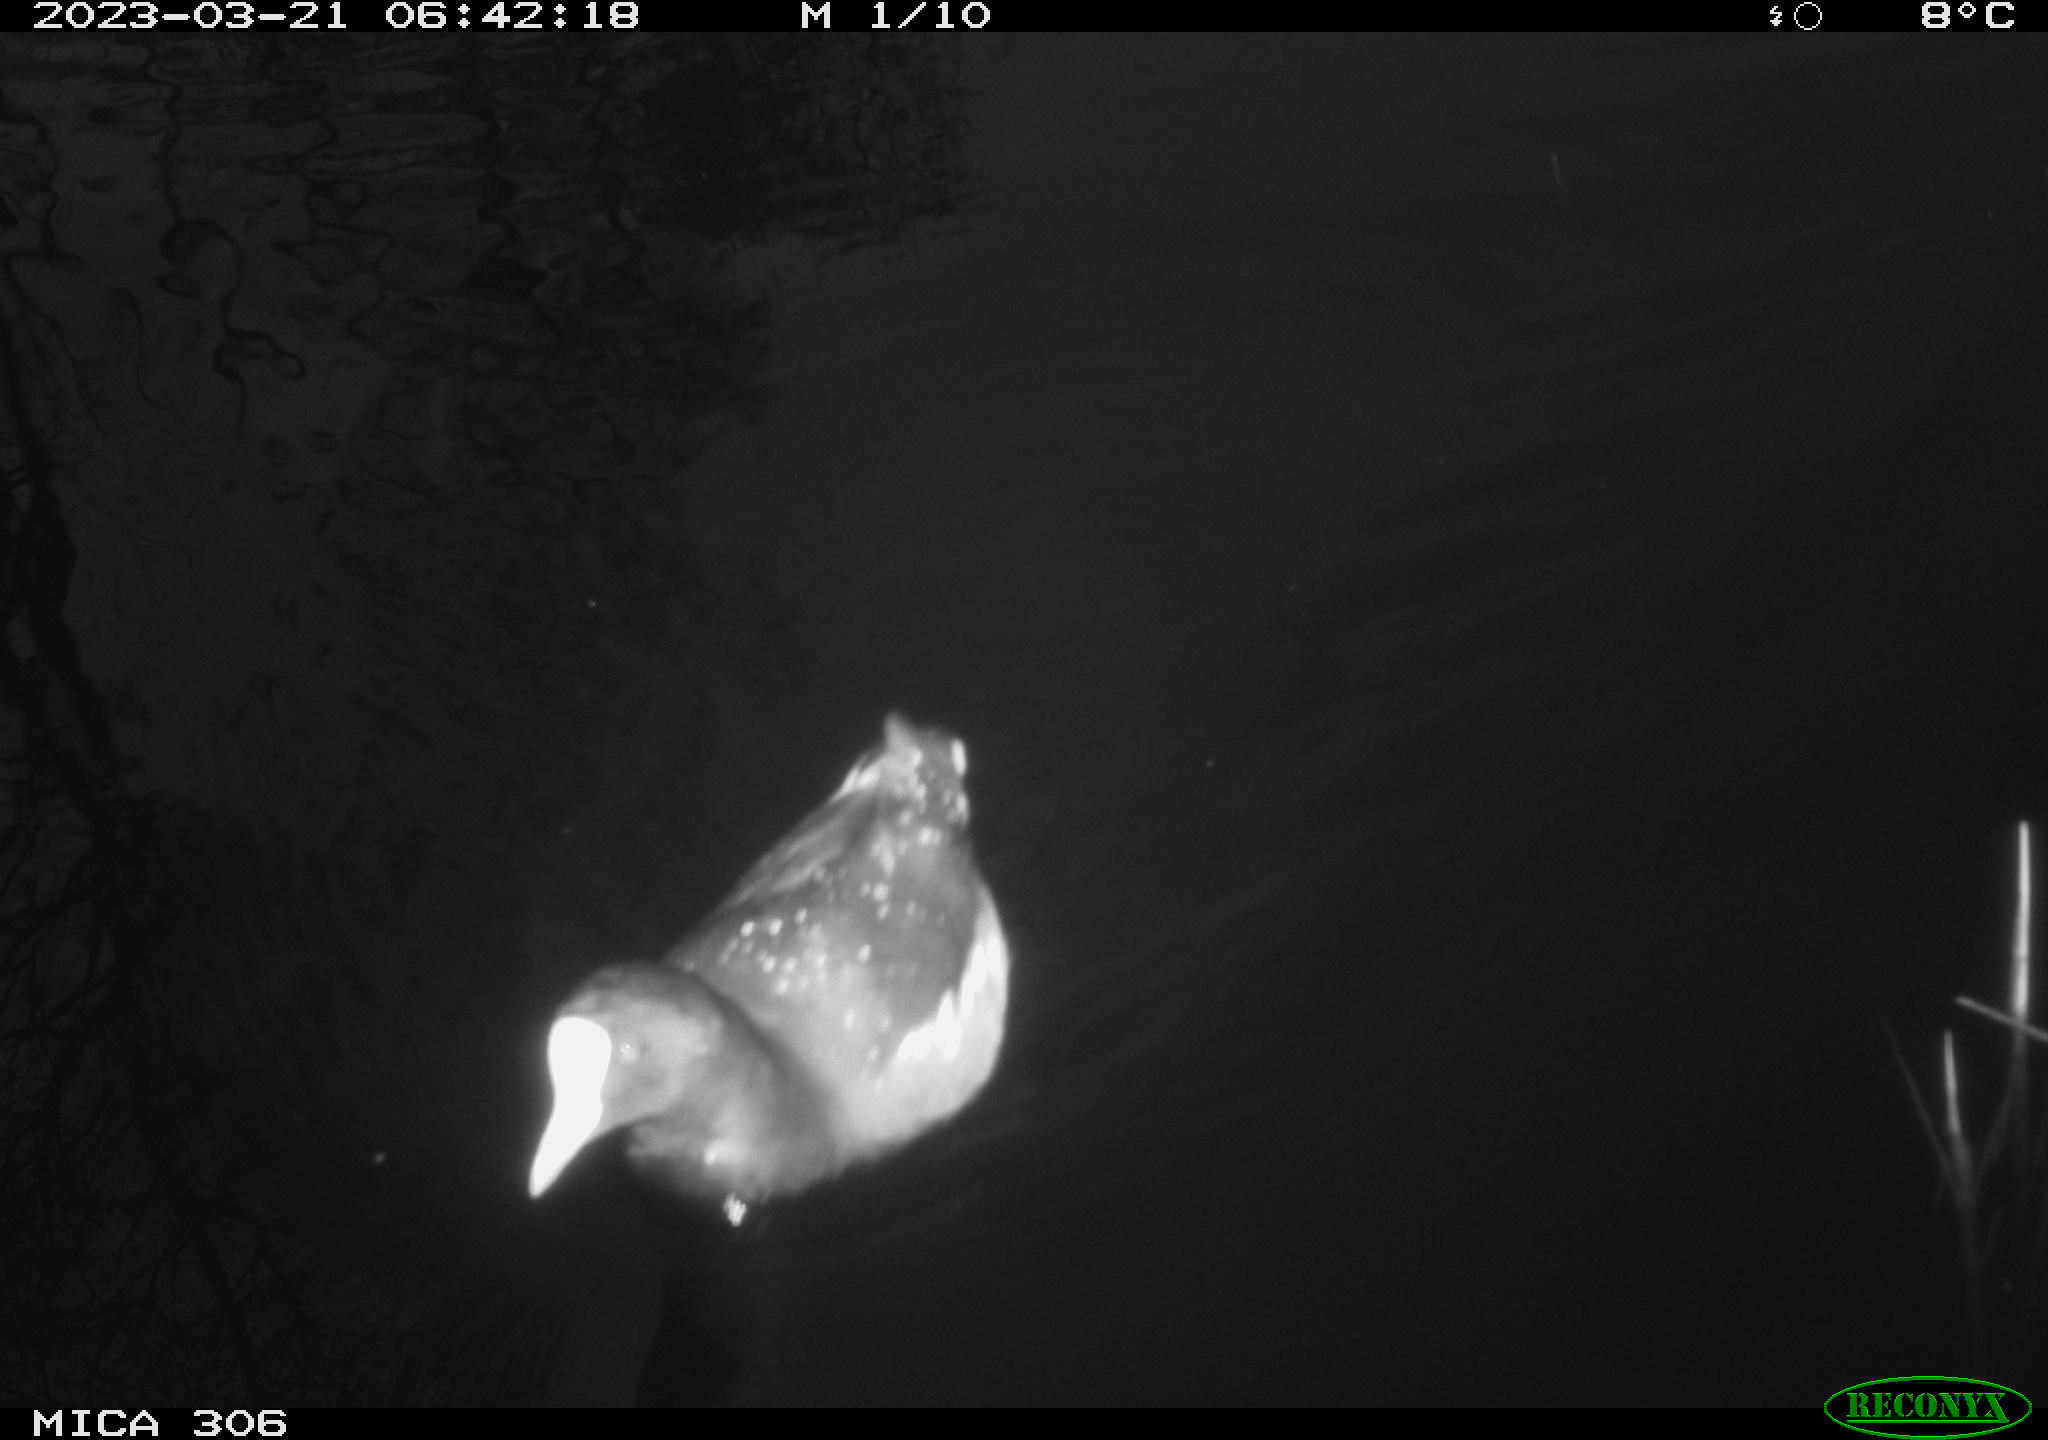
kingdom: Animalia
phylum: Chordata
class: Aves
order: Anseriformes
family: Anatidae
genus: Anas
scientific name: Anas
